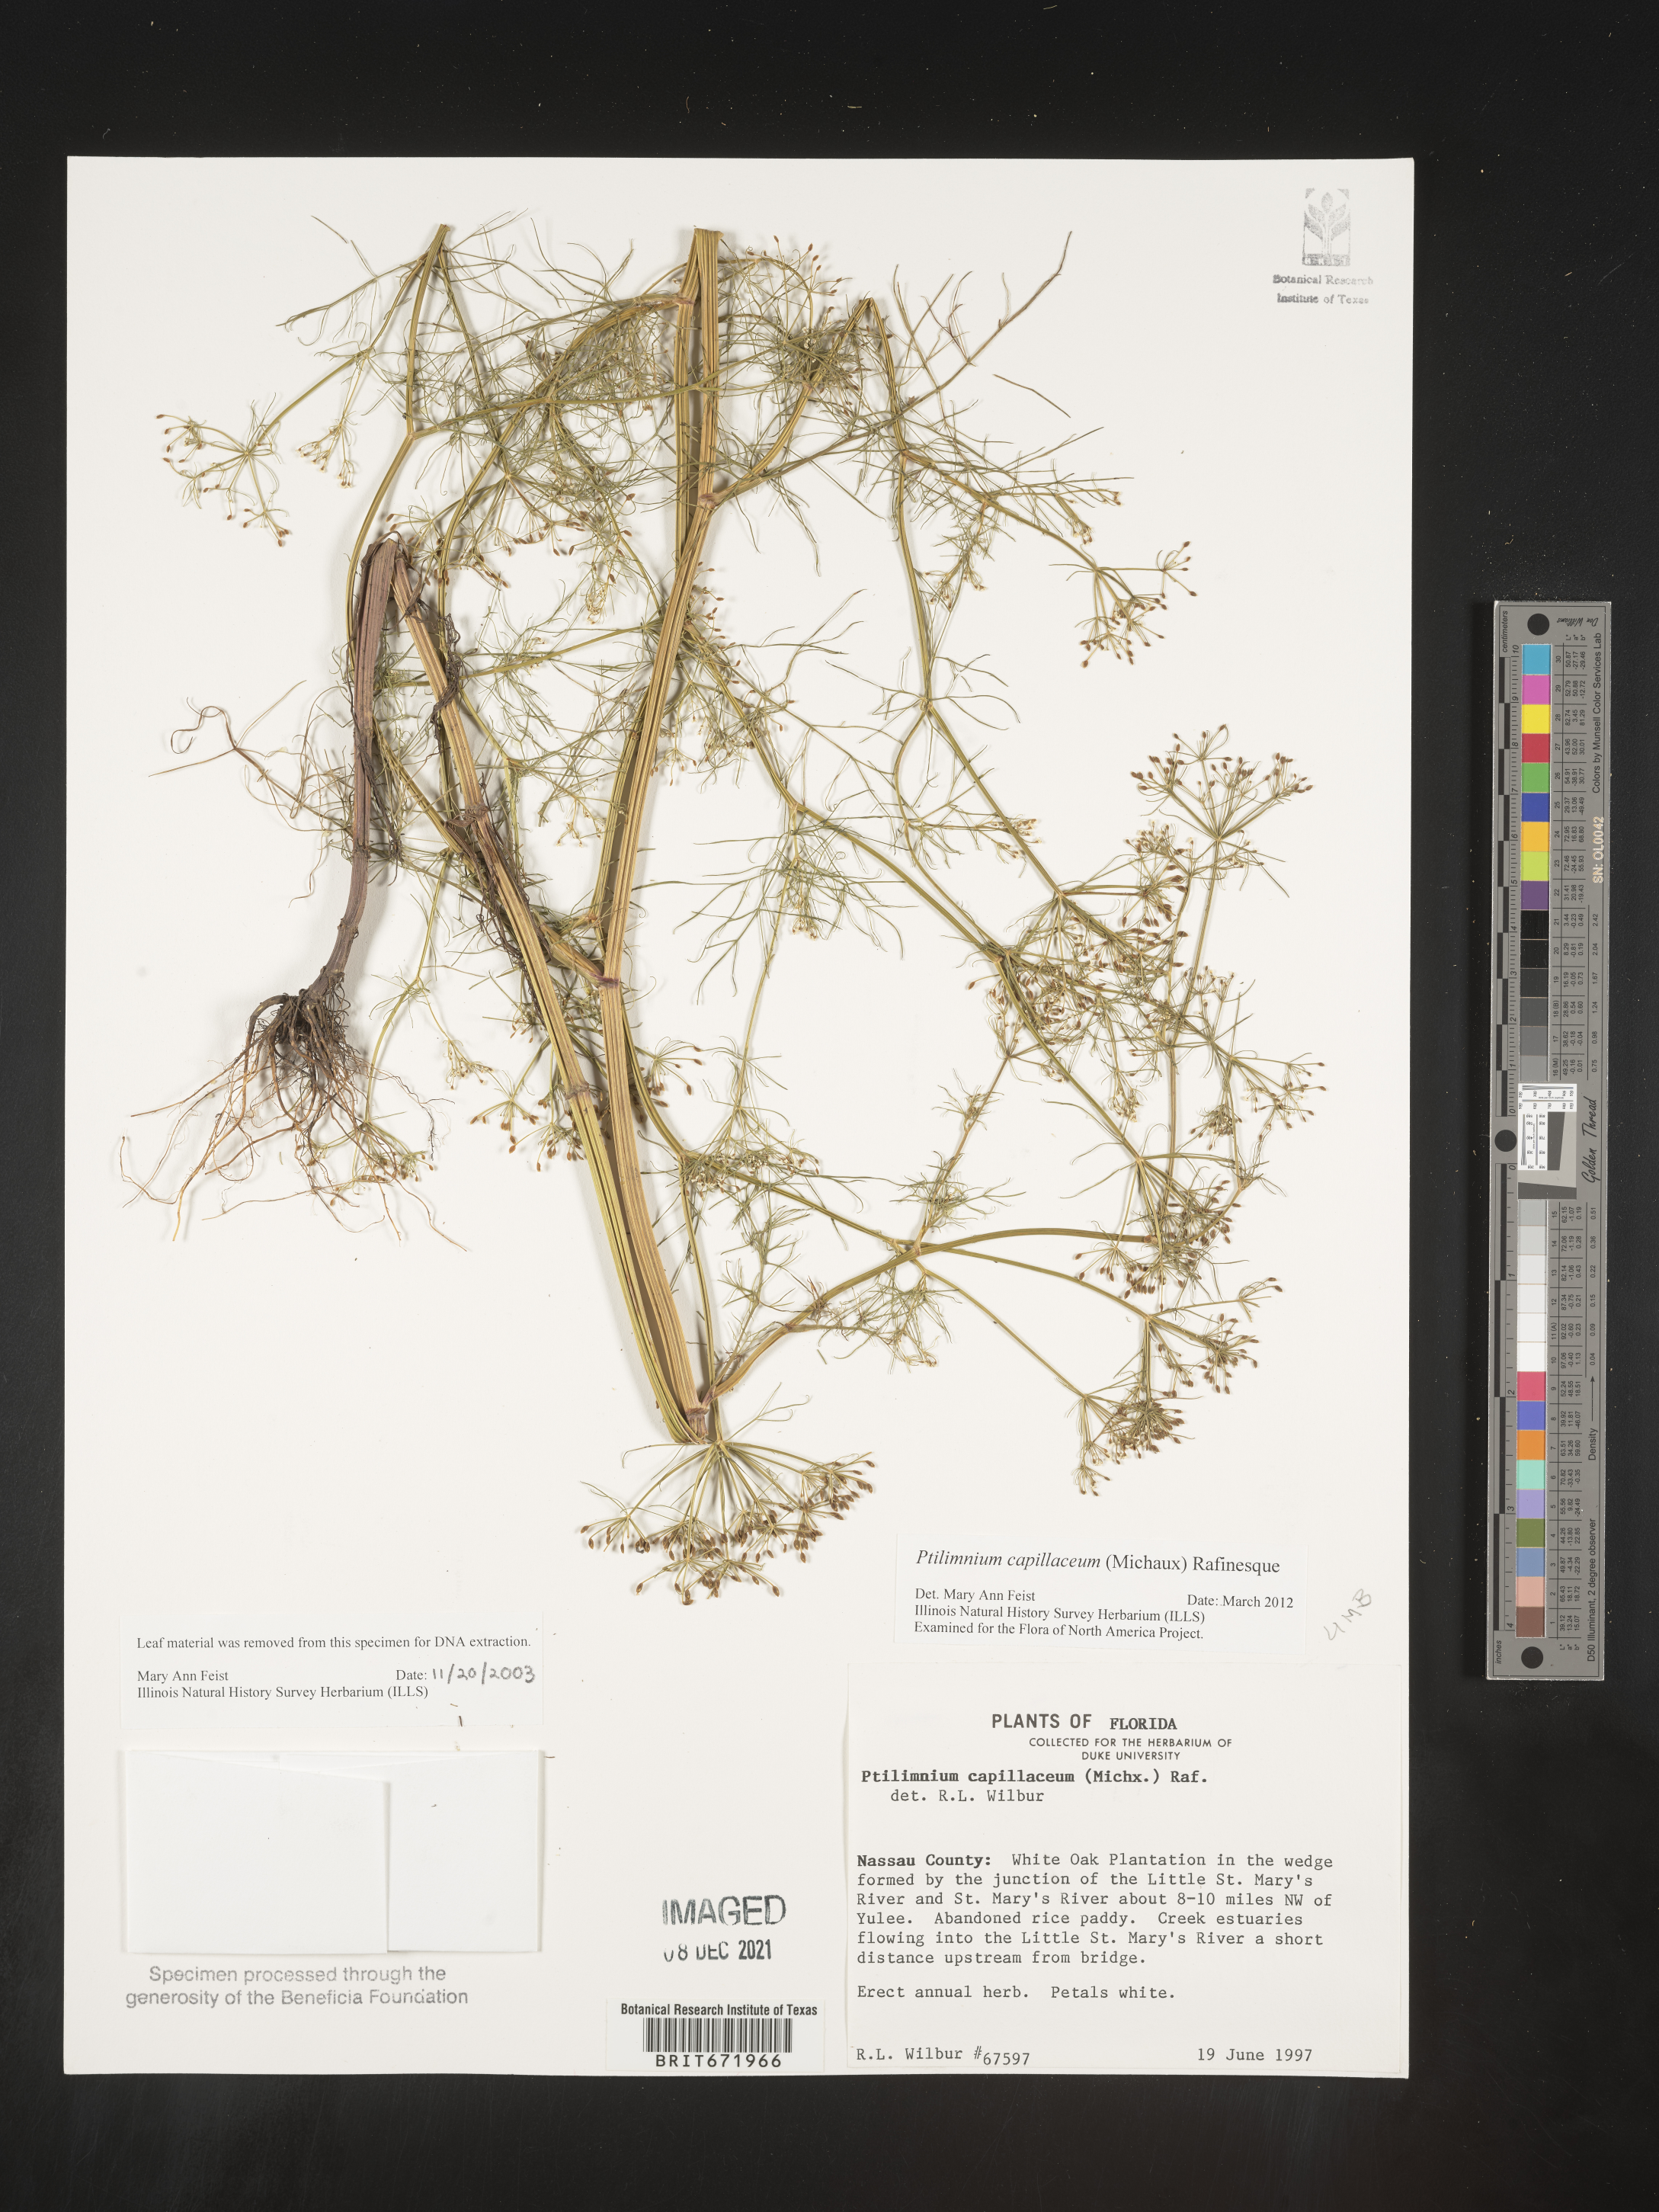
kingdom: Plantae
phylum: Tracheophyta
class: Magnoliopsida
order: Apiales
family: Apiaceae
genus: Ptilimnium
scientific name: Ptilimnium capillaceum
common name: Herbwilliam
